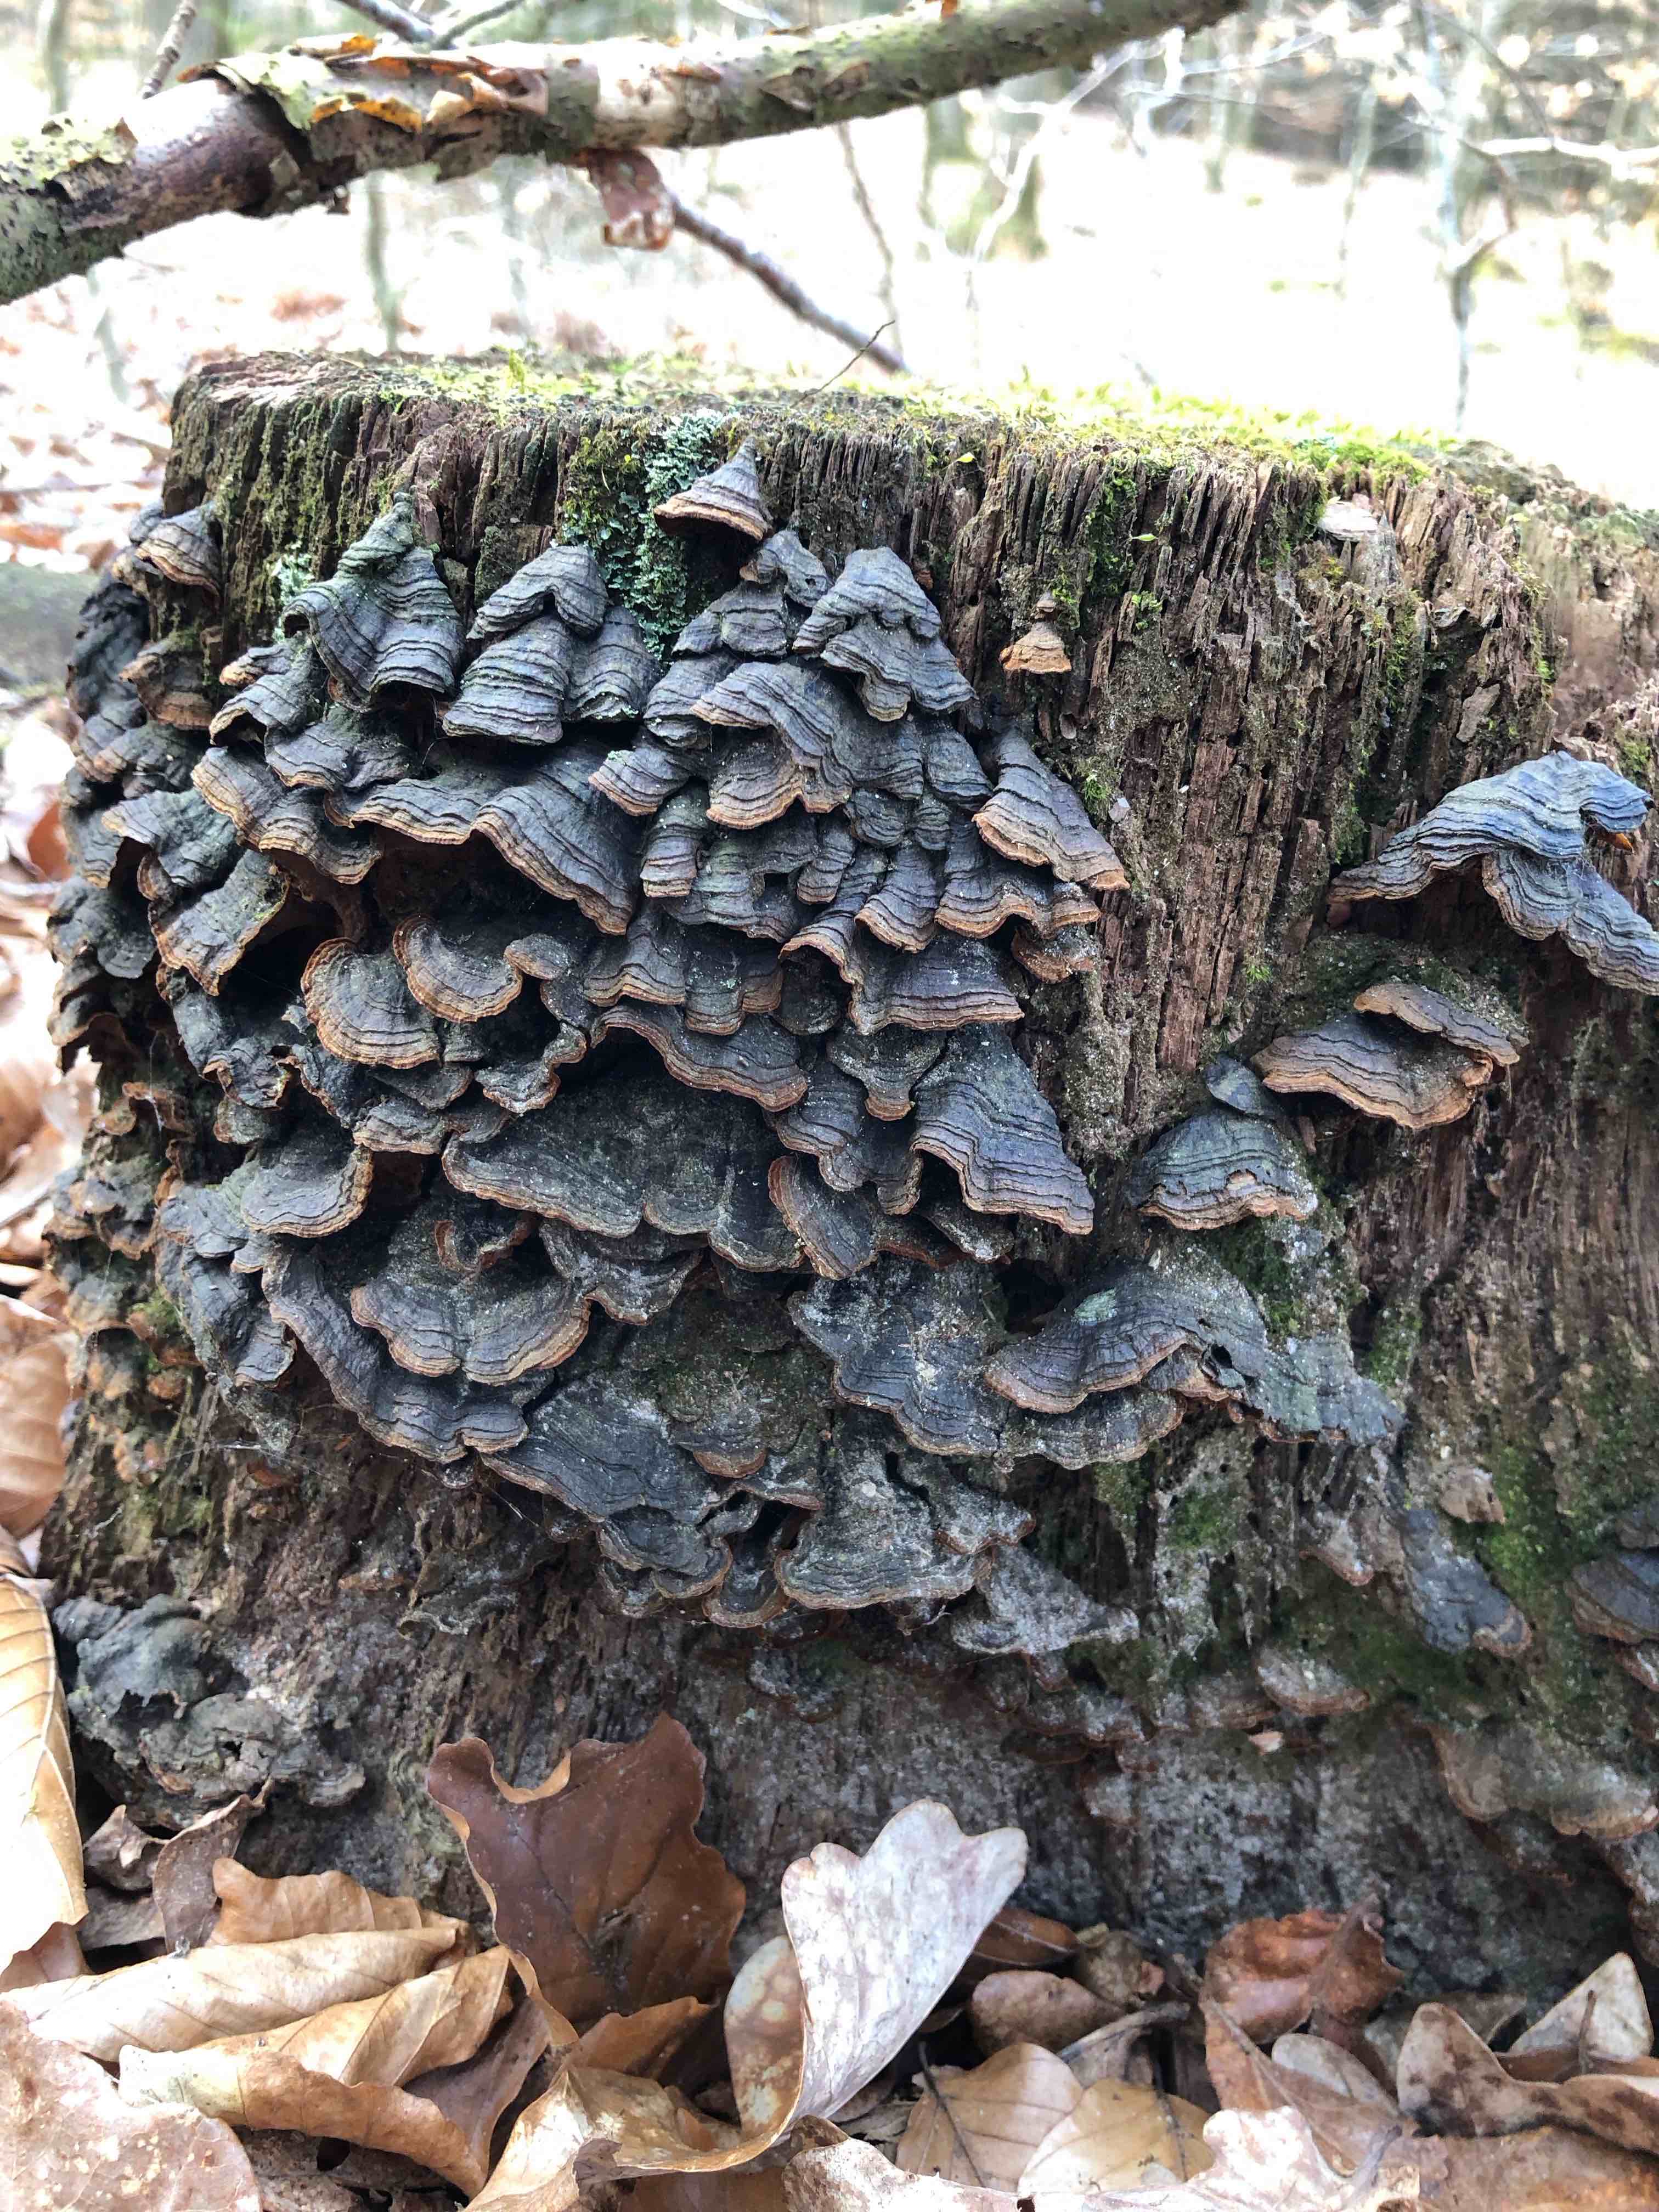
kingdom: Fungi
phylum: Basidiomycota
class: Agaricomycetes
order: Hymenochaetales
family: Hymenochaetaceae
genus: Hymenochaete
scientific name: Hymenochaete rubiginosa
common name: stiv ruslædersvamp
